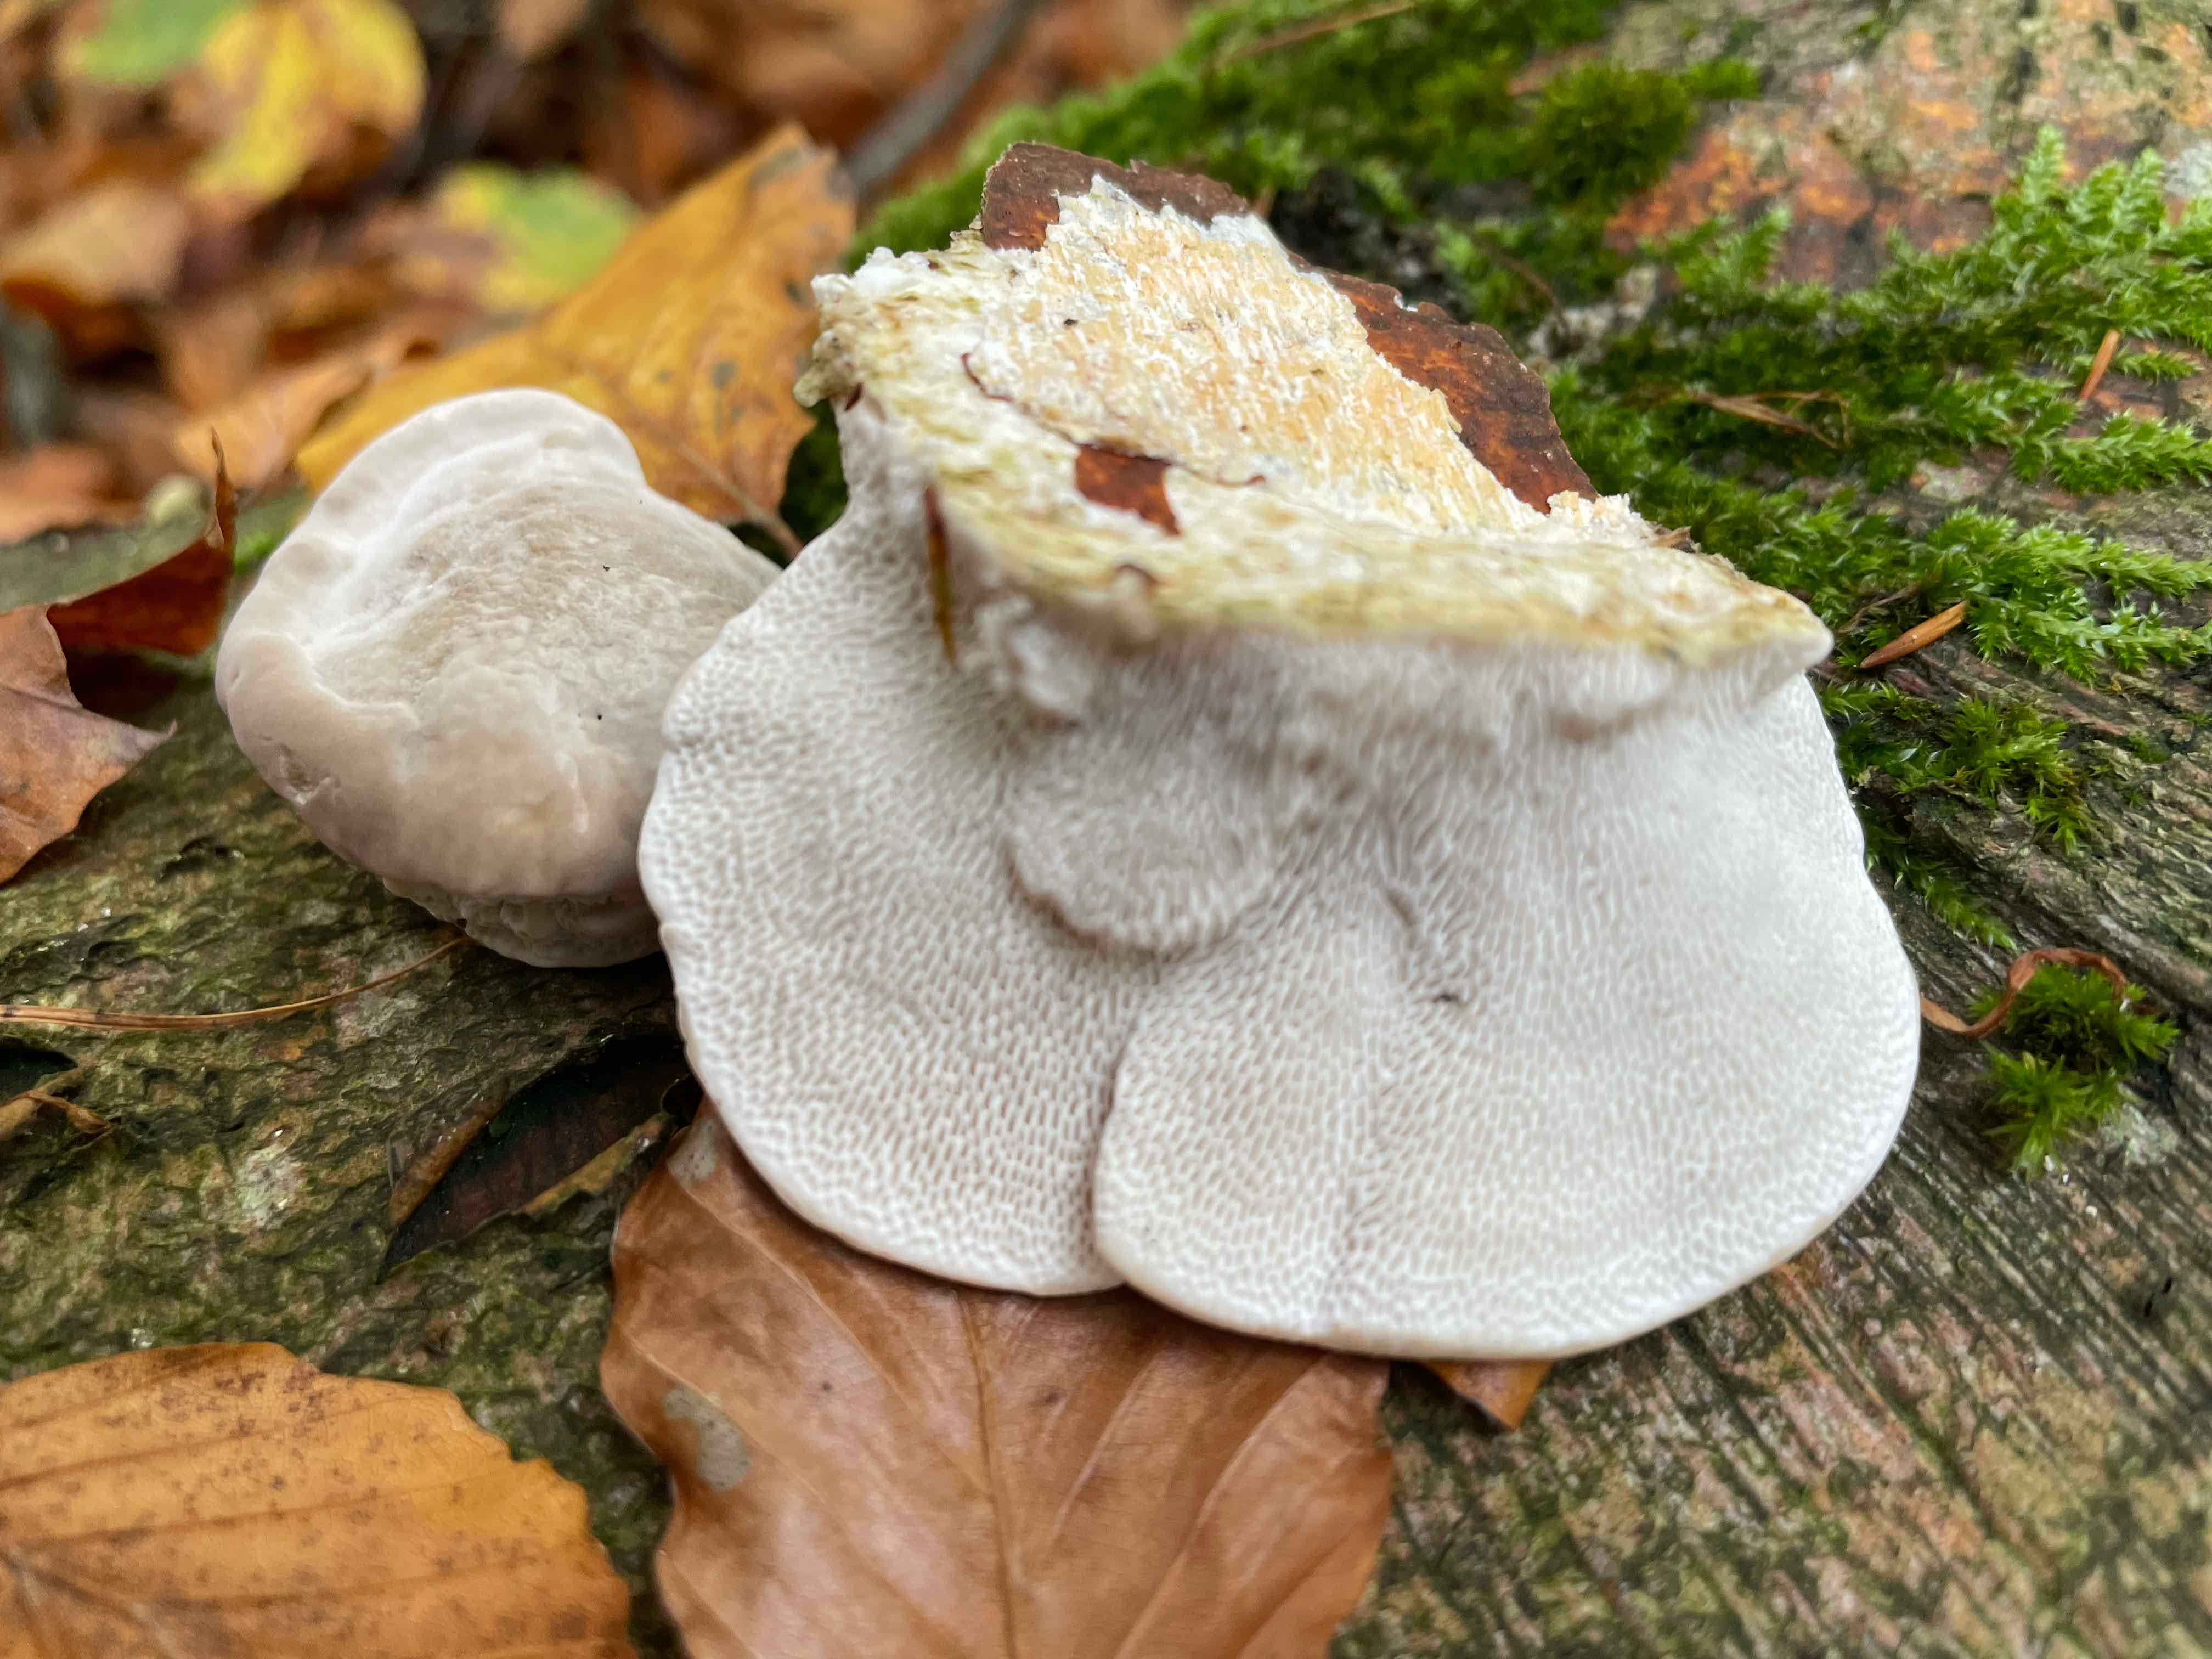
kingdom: Fungi
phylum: Basidiomycota
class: Agaricomycetes
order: Polyporales
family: Polyporaceae
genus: Trametes
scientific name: Trametes gibbosa
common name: puklet læderporesvamp
